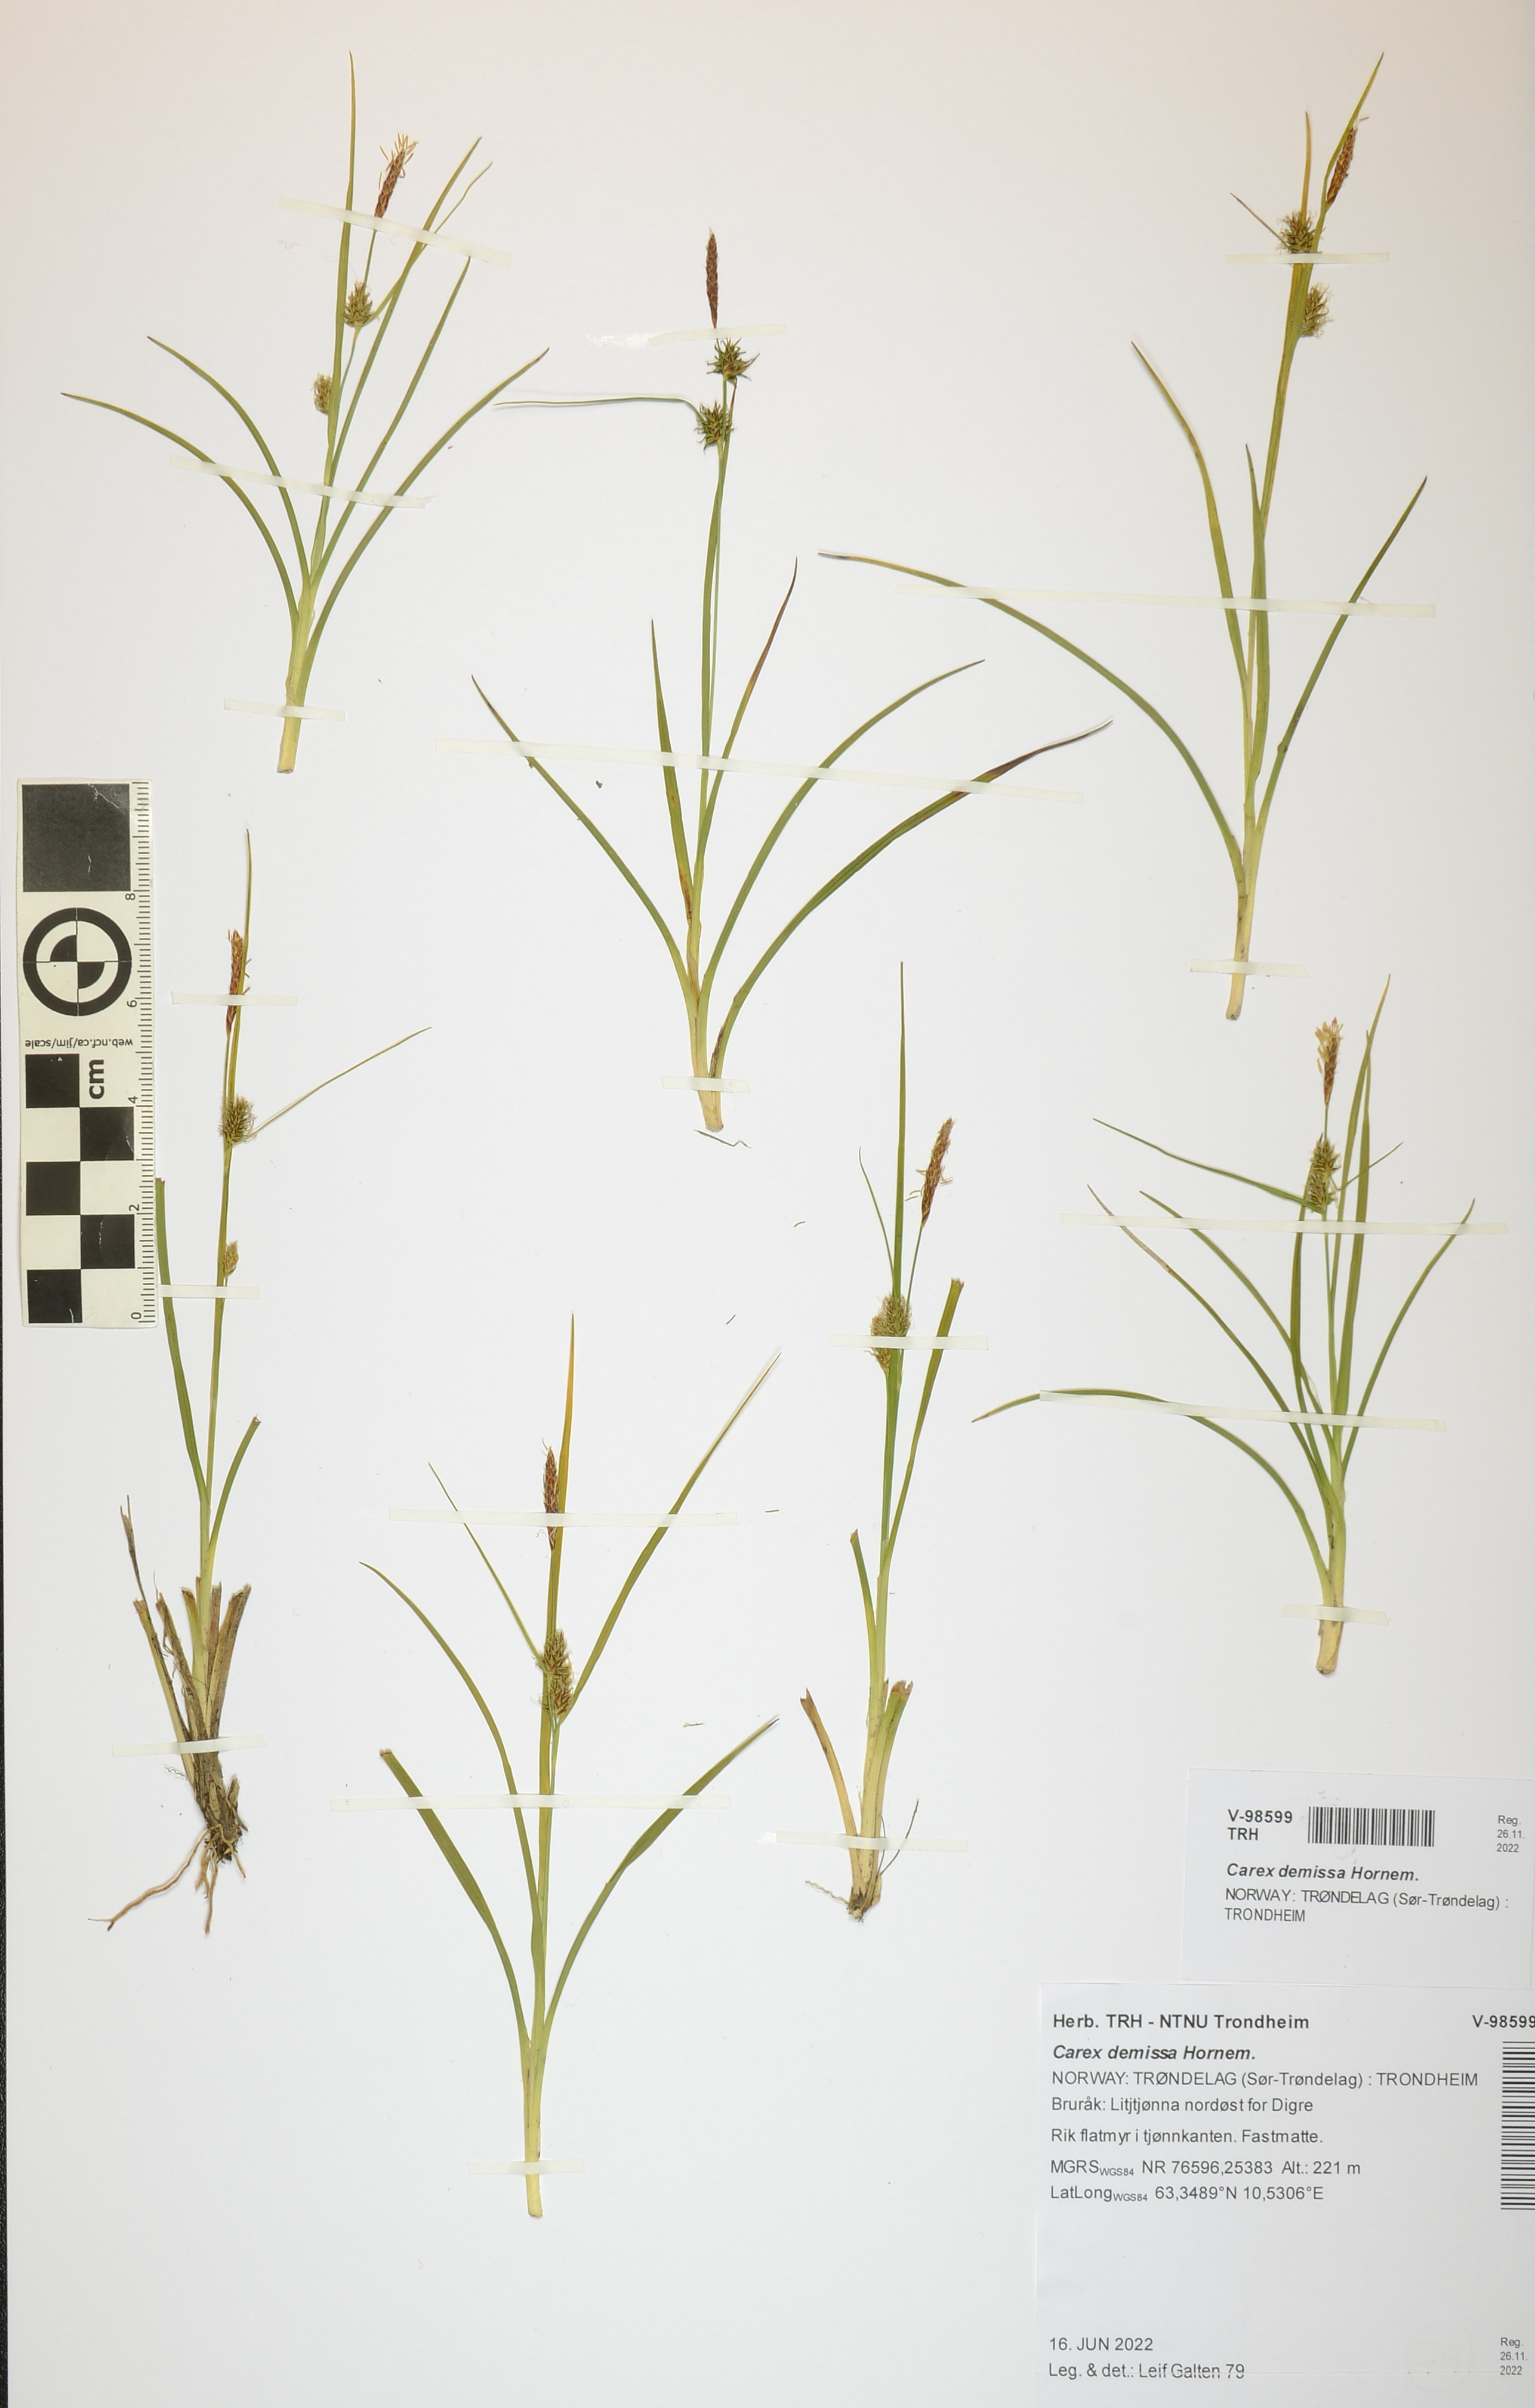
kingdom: Plantae
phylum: Tracheophyta
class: Liliopsida
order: Poales
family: Cyperaceae
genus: Carex
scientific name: Carex demissa
